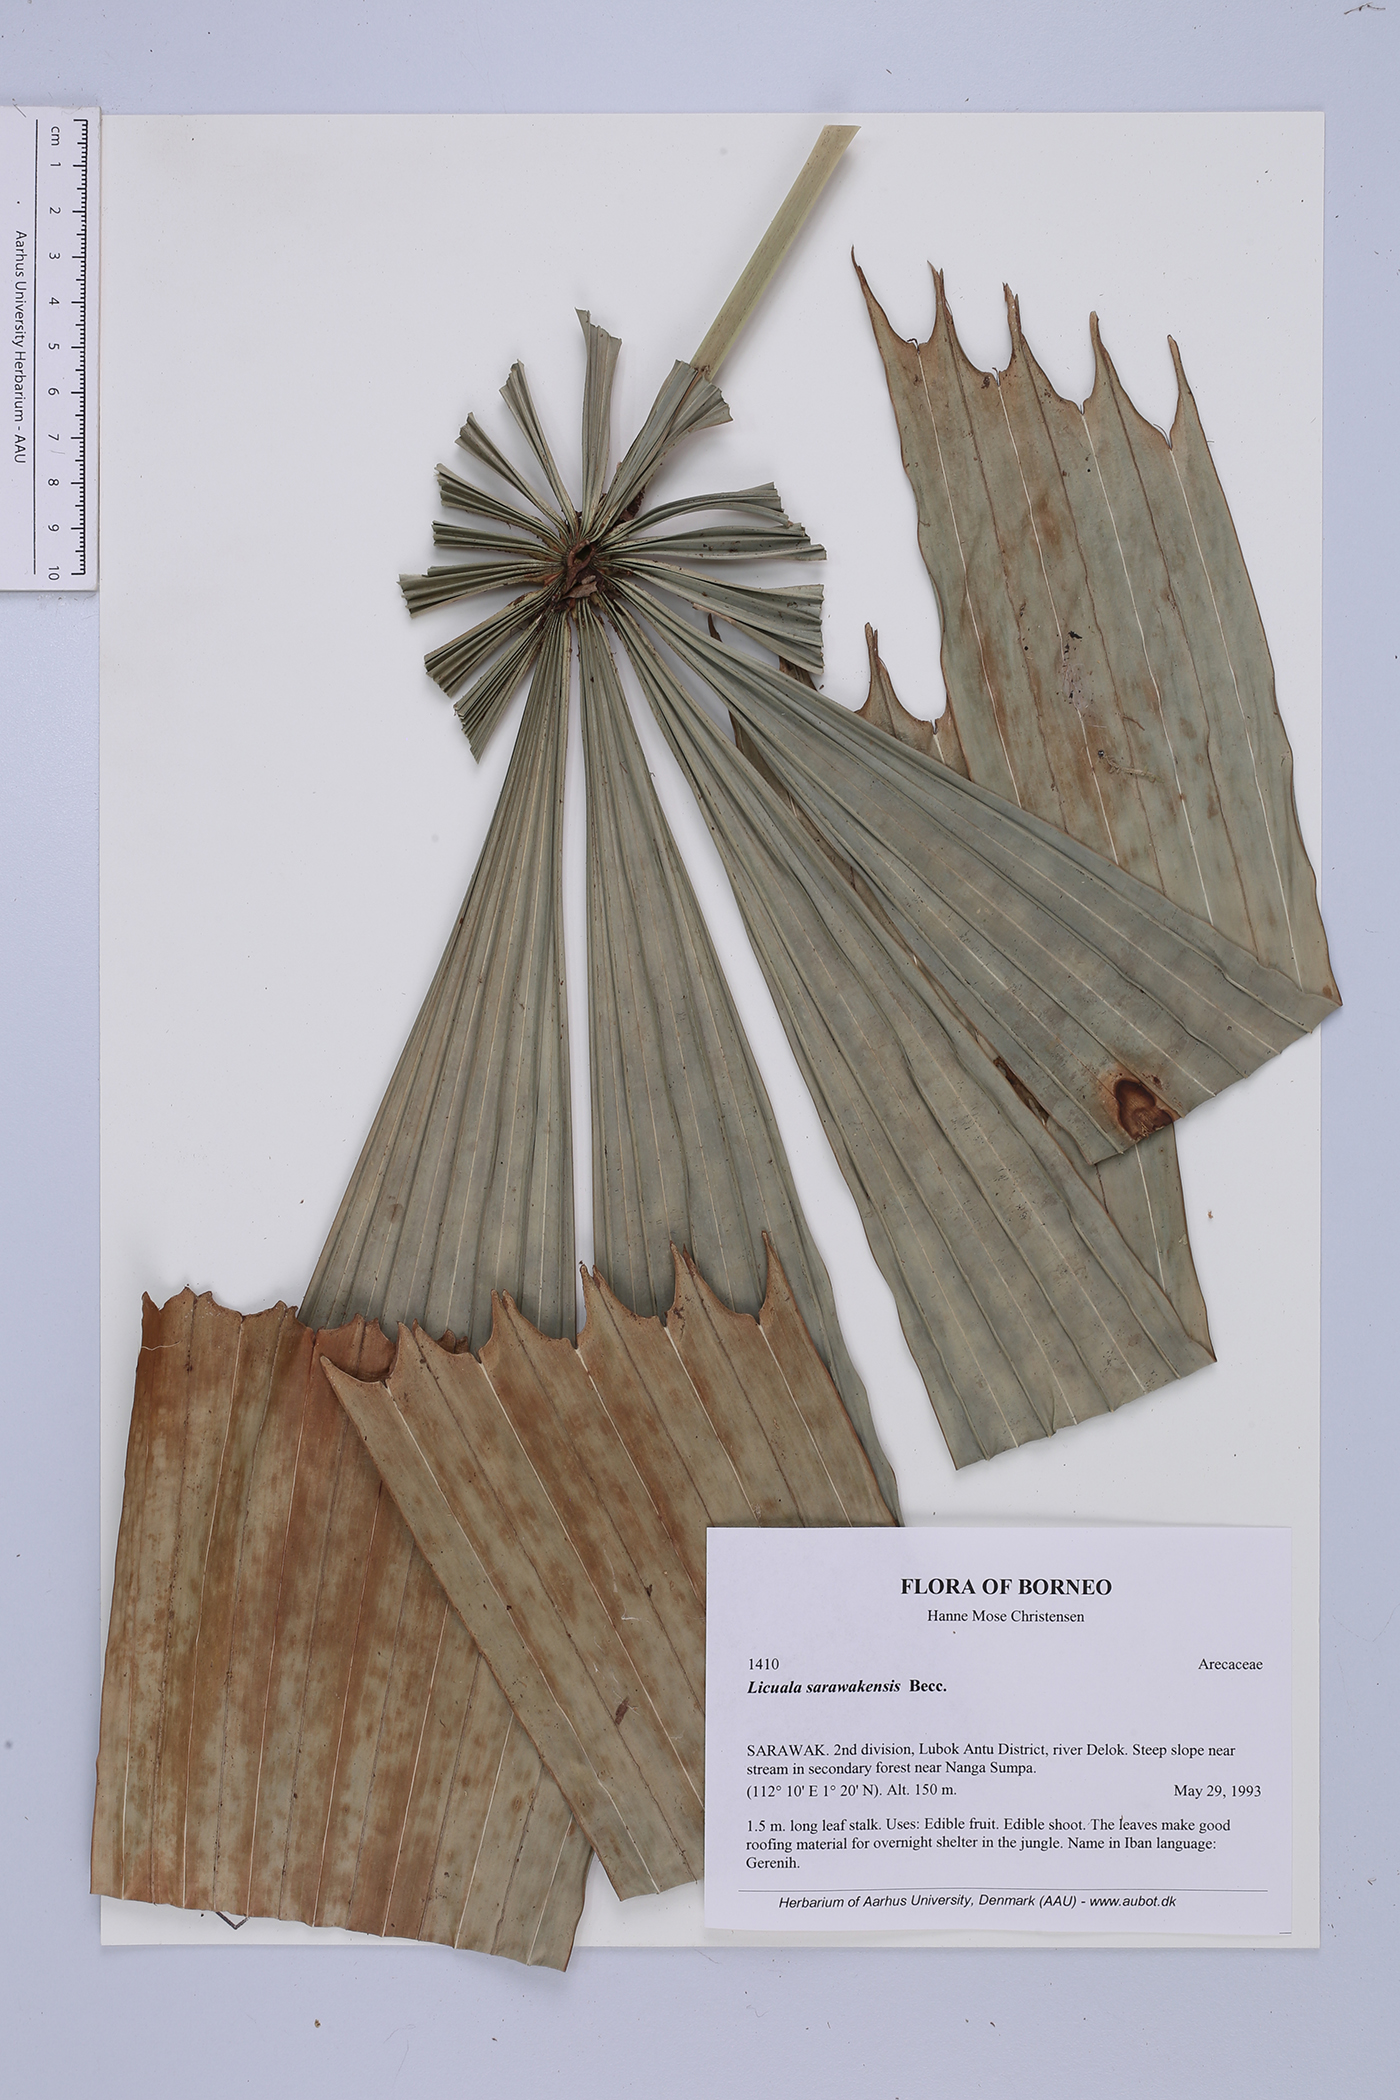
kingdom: Plantae
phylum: Tracheophyta
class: Liliopsida
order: Arecales
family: Arecaceae
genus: Licuala
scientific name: Licuala sarawakensis
